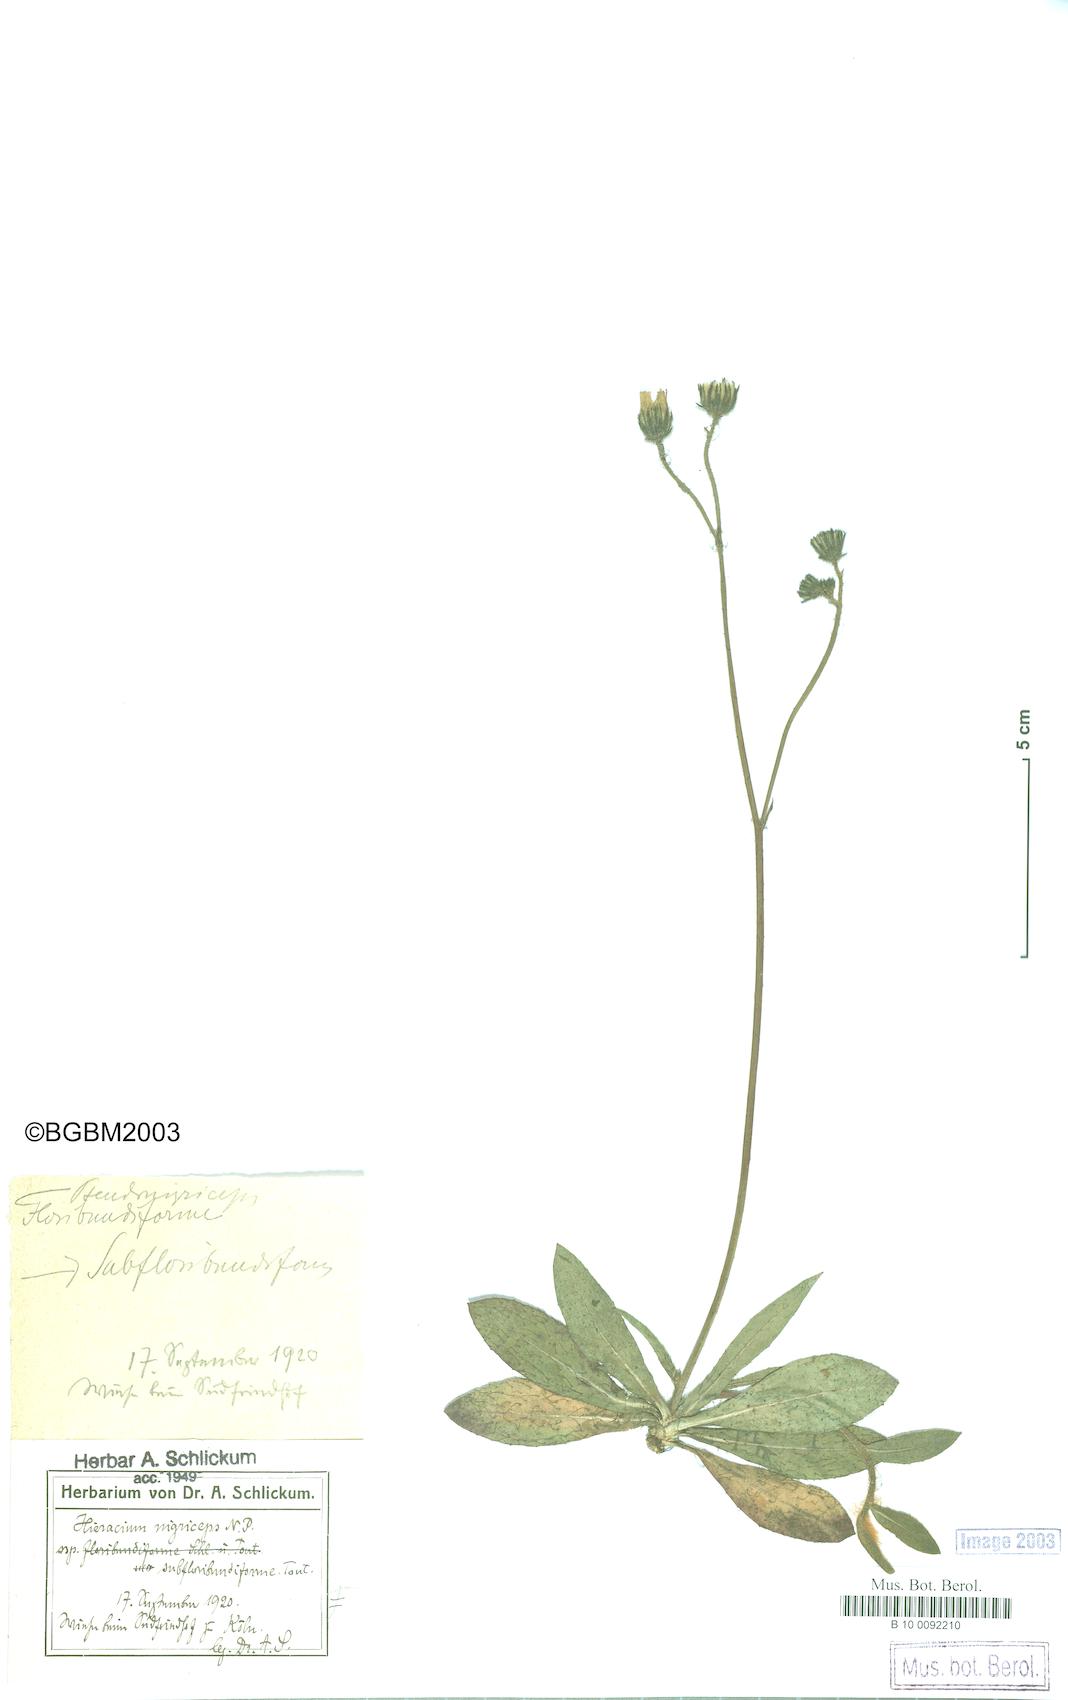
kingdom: Plantae
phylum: Tracheophyta
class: Magnoliopsida
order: Asterales
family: Asteraceae
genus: Pilosella
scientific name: Pilosella piloselliflora
